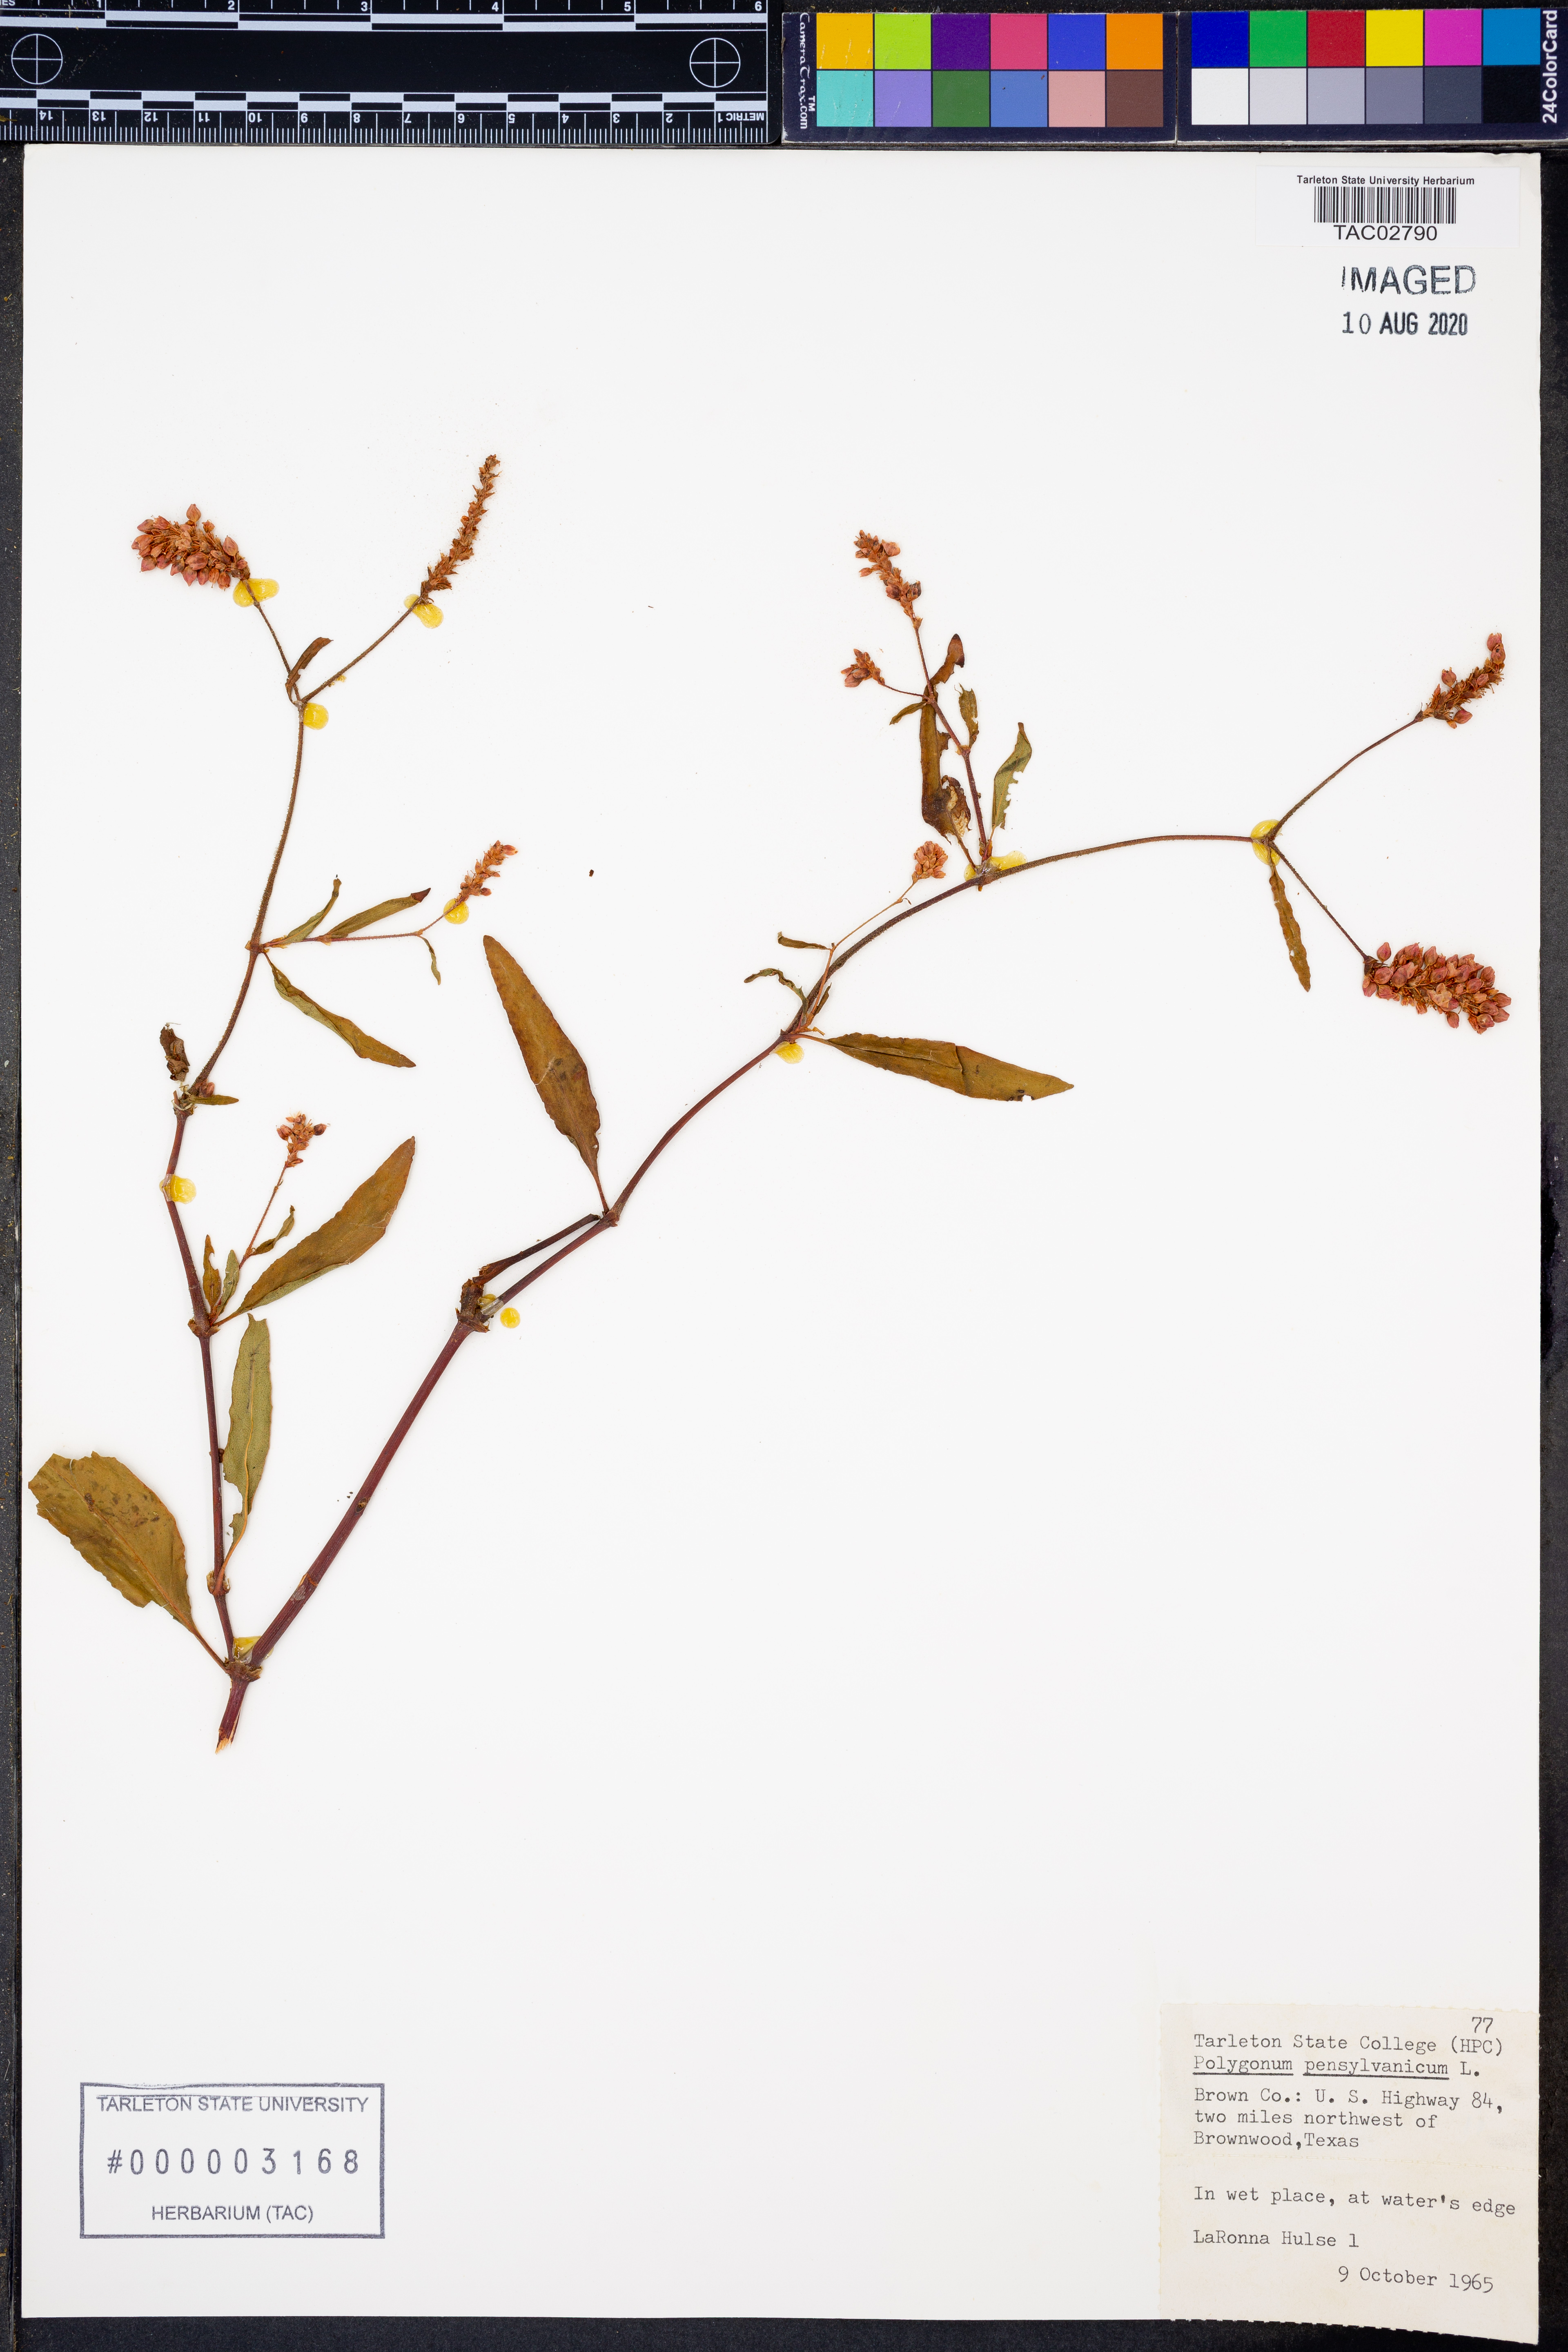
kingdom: Plantae
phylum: Tracheophyta
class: Magnoliopsida
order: Caryophyllales
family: Polygonaceae
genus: Persicaria
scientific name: Persicaria pensylvanica
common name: Pinkweed
